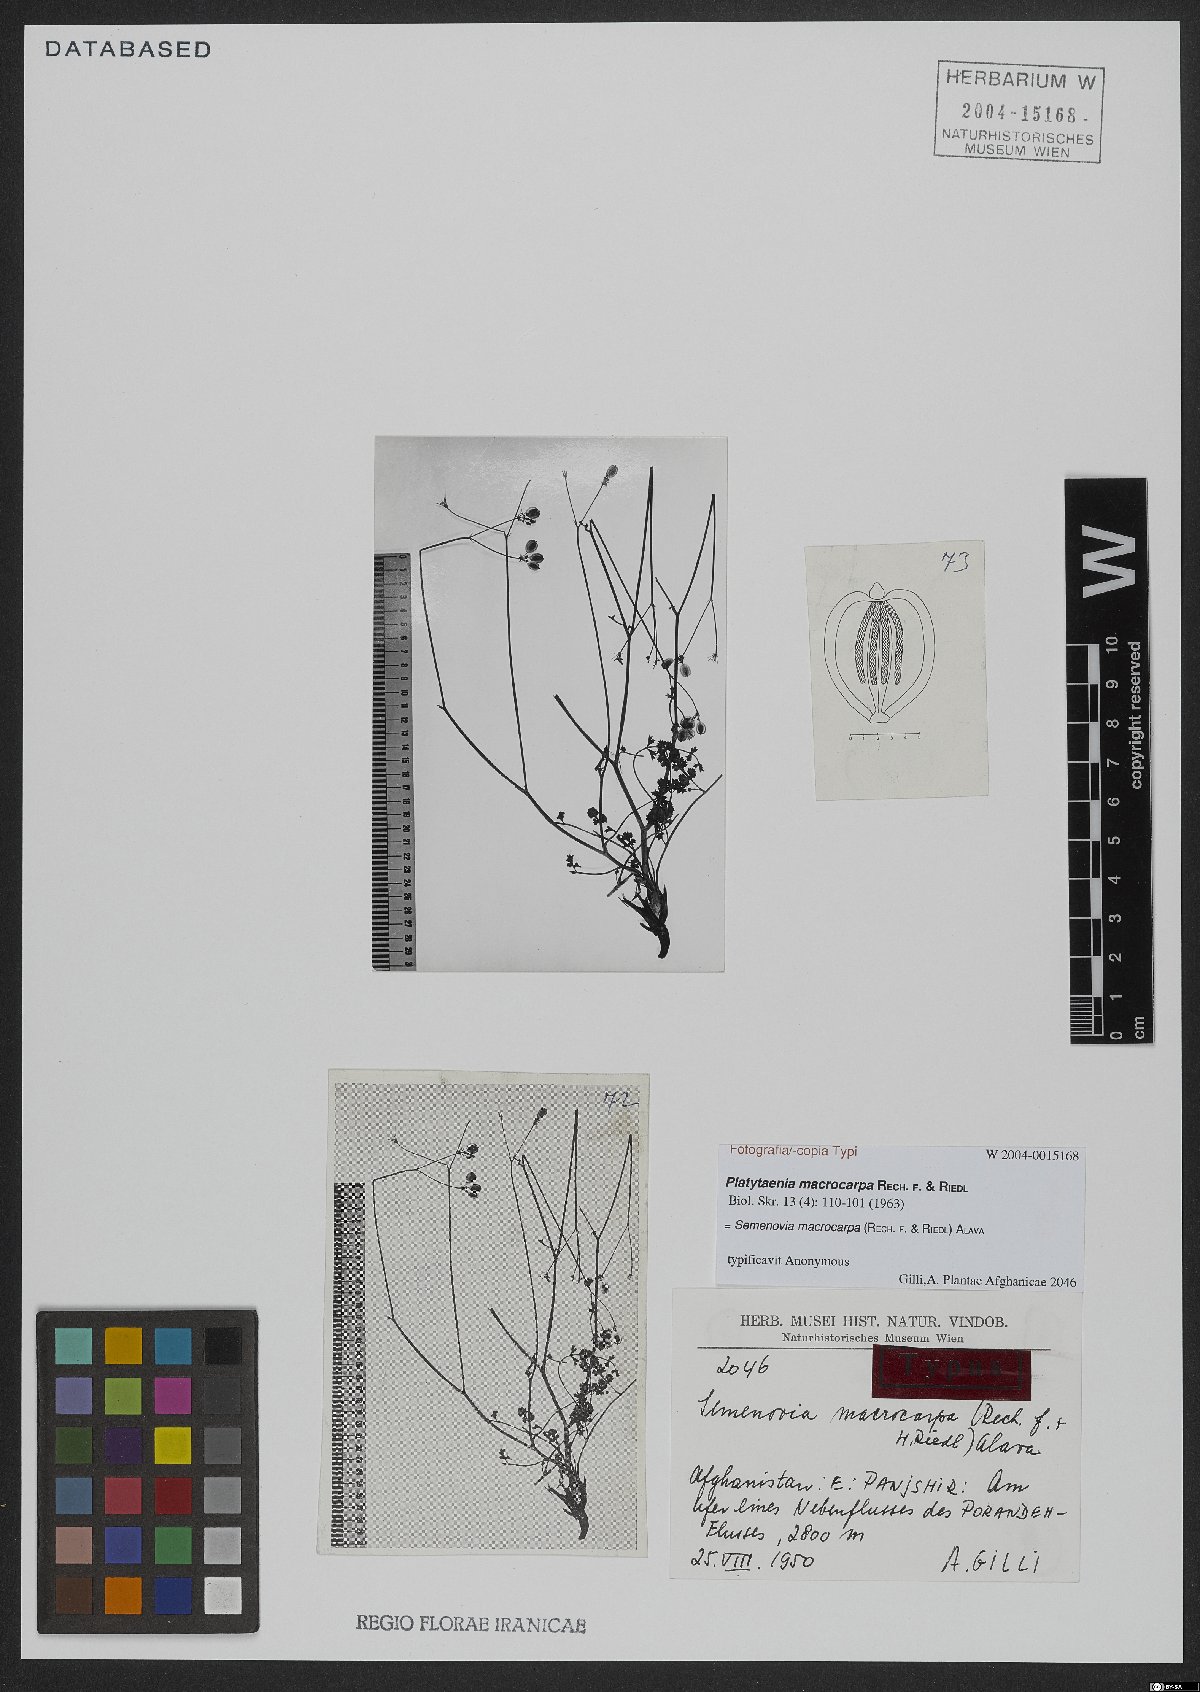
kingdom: Plantae
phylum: Tracheophyta
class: Magnoliopsida
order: Apiales
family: Apiaceae
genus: Semenovia
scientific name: Semenovia macrocarpa
